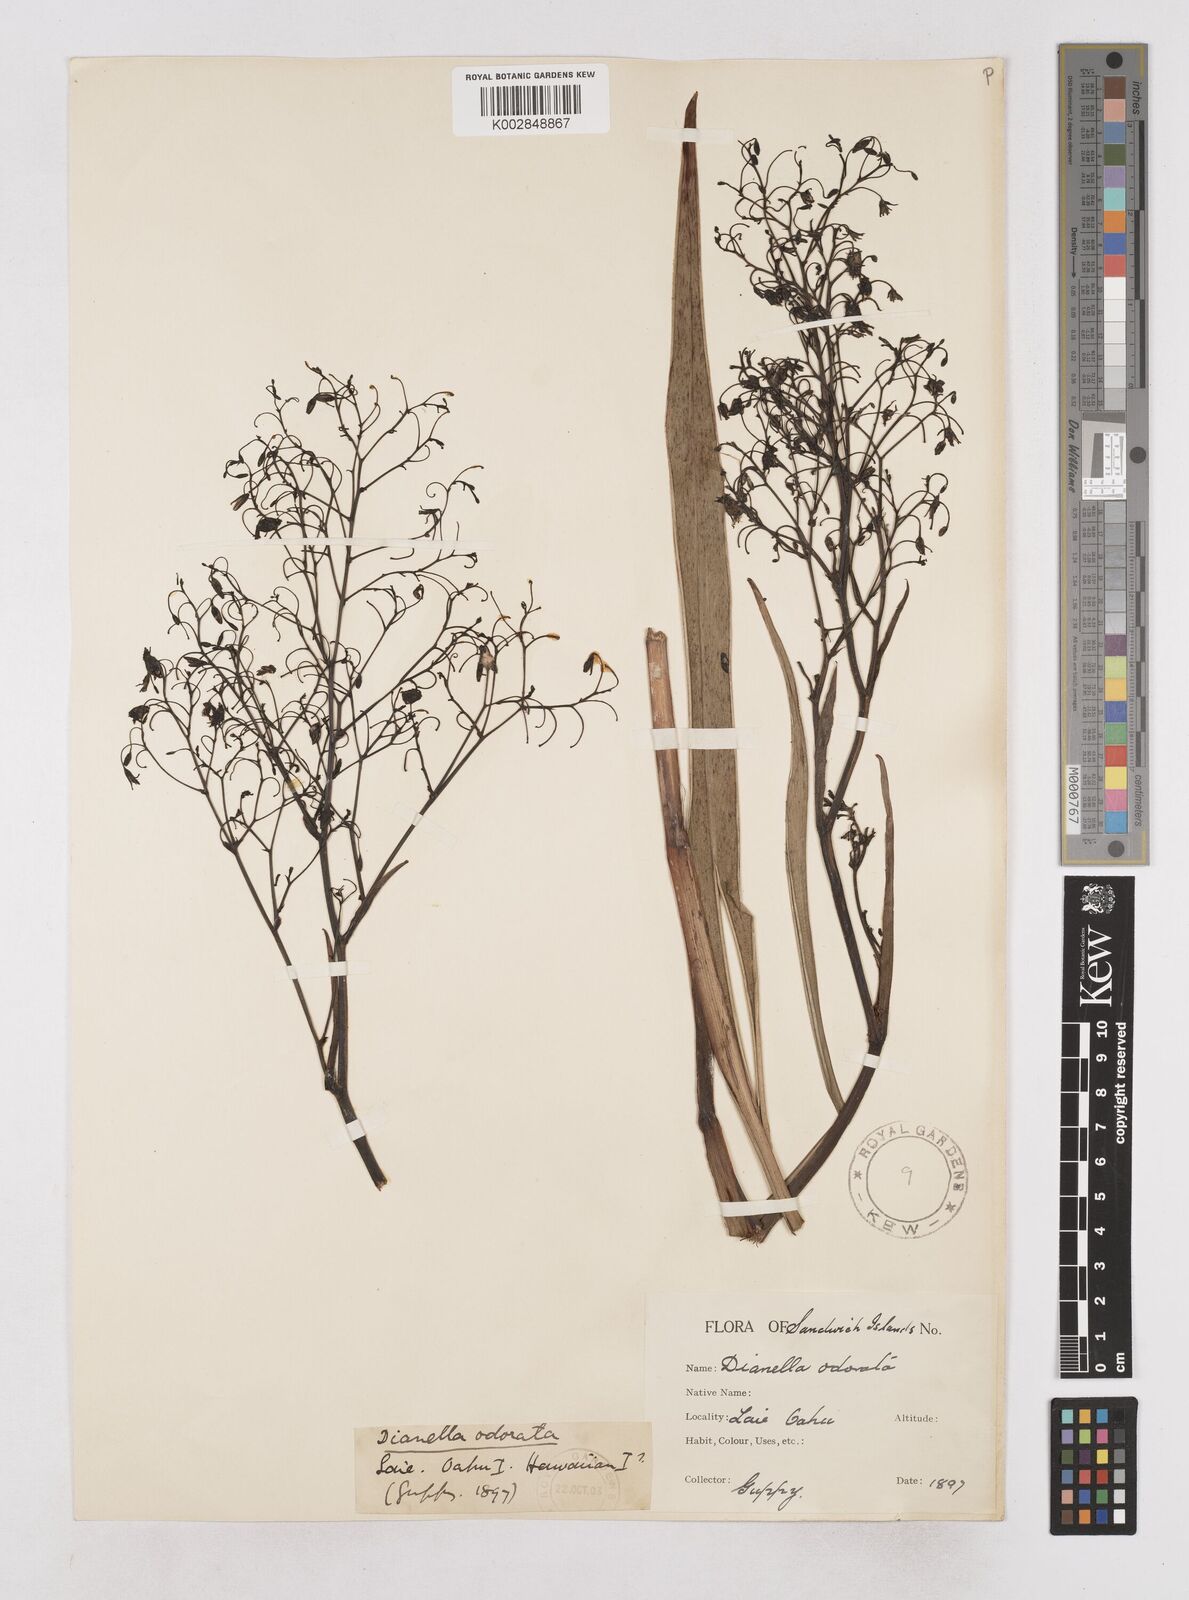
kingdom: Plantae
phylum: Tracheophyta
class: Liliopsida
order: Asparagales
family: Asphodelaceae
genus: Dianella
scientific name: Dianella odorata
